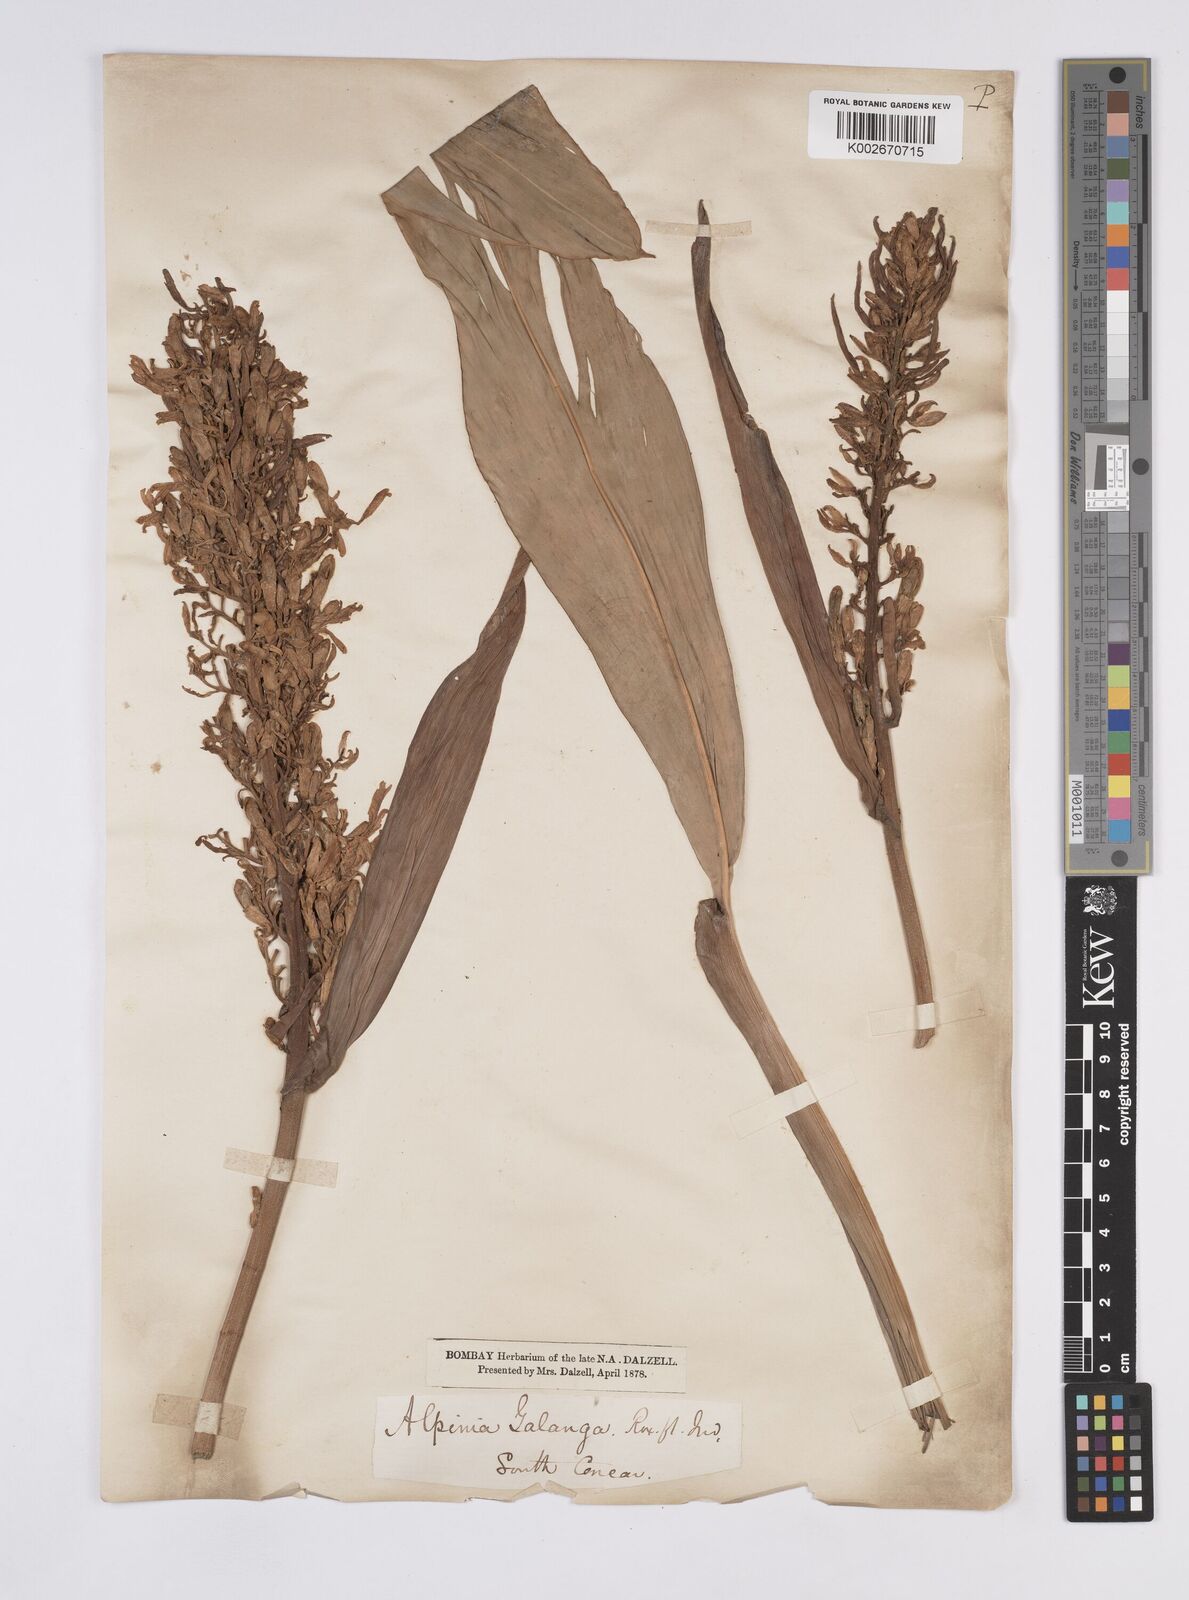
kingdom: Plantae
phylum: Tracheophyta
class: Liliopsida
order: Zingiberales
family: Zingiberaceae
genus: Alpinia
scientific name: Alpinia galanga
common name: Siamese-ginger
